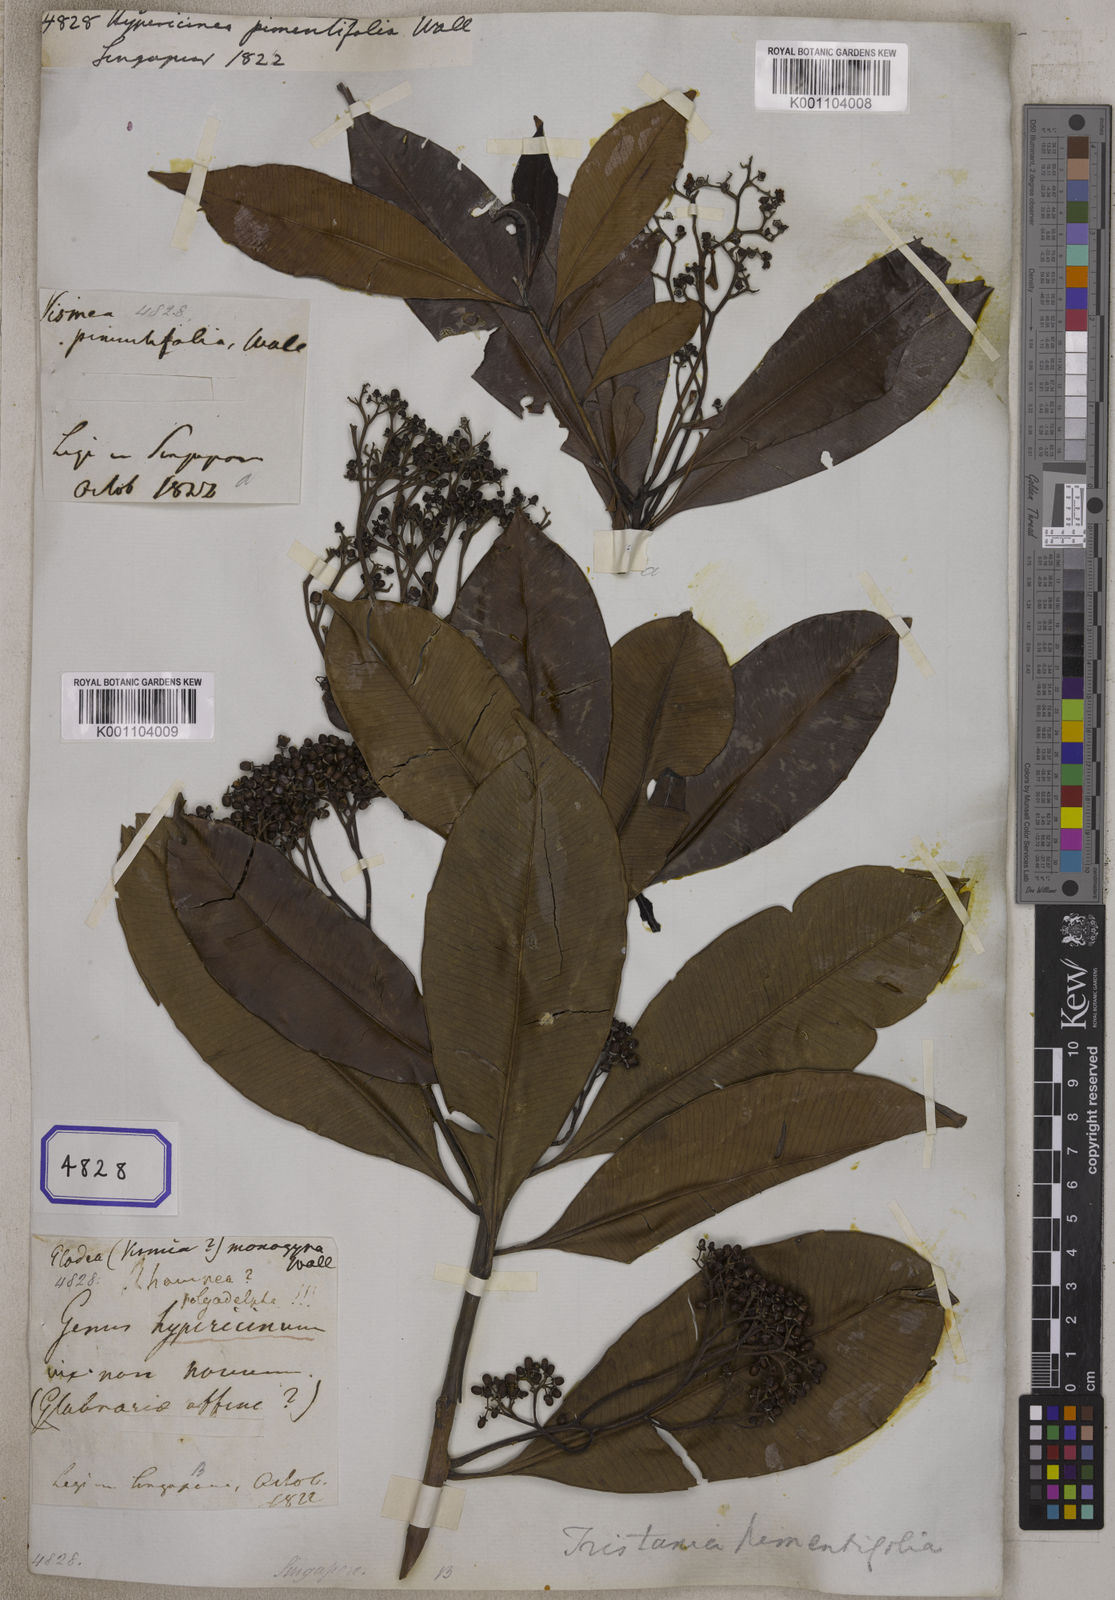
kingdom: Plantae
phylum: Tracheophyta
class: Magnoliopsida
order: Myrtales
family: Myrtaceae
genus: Tristaniopsis
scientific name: Tristaniopsis whiteana
